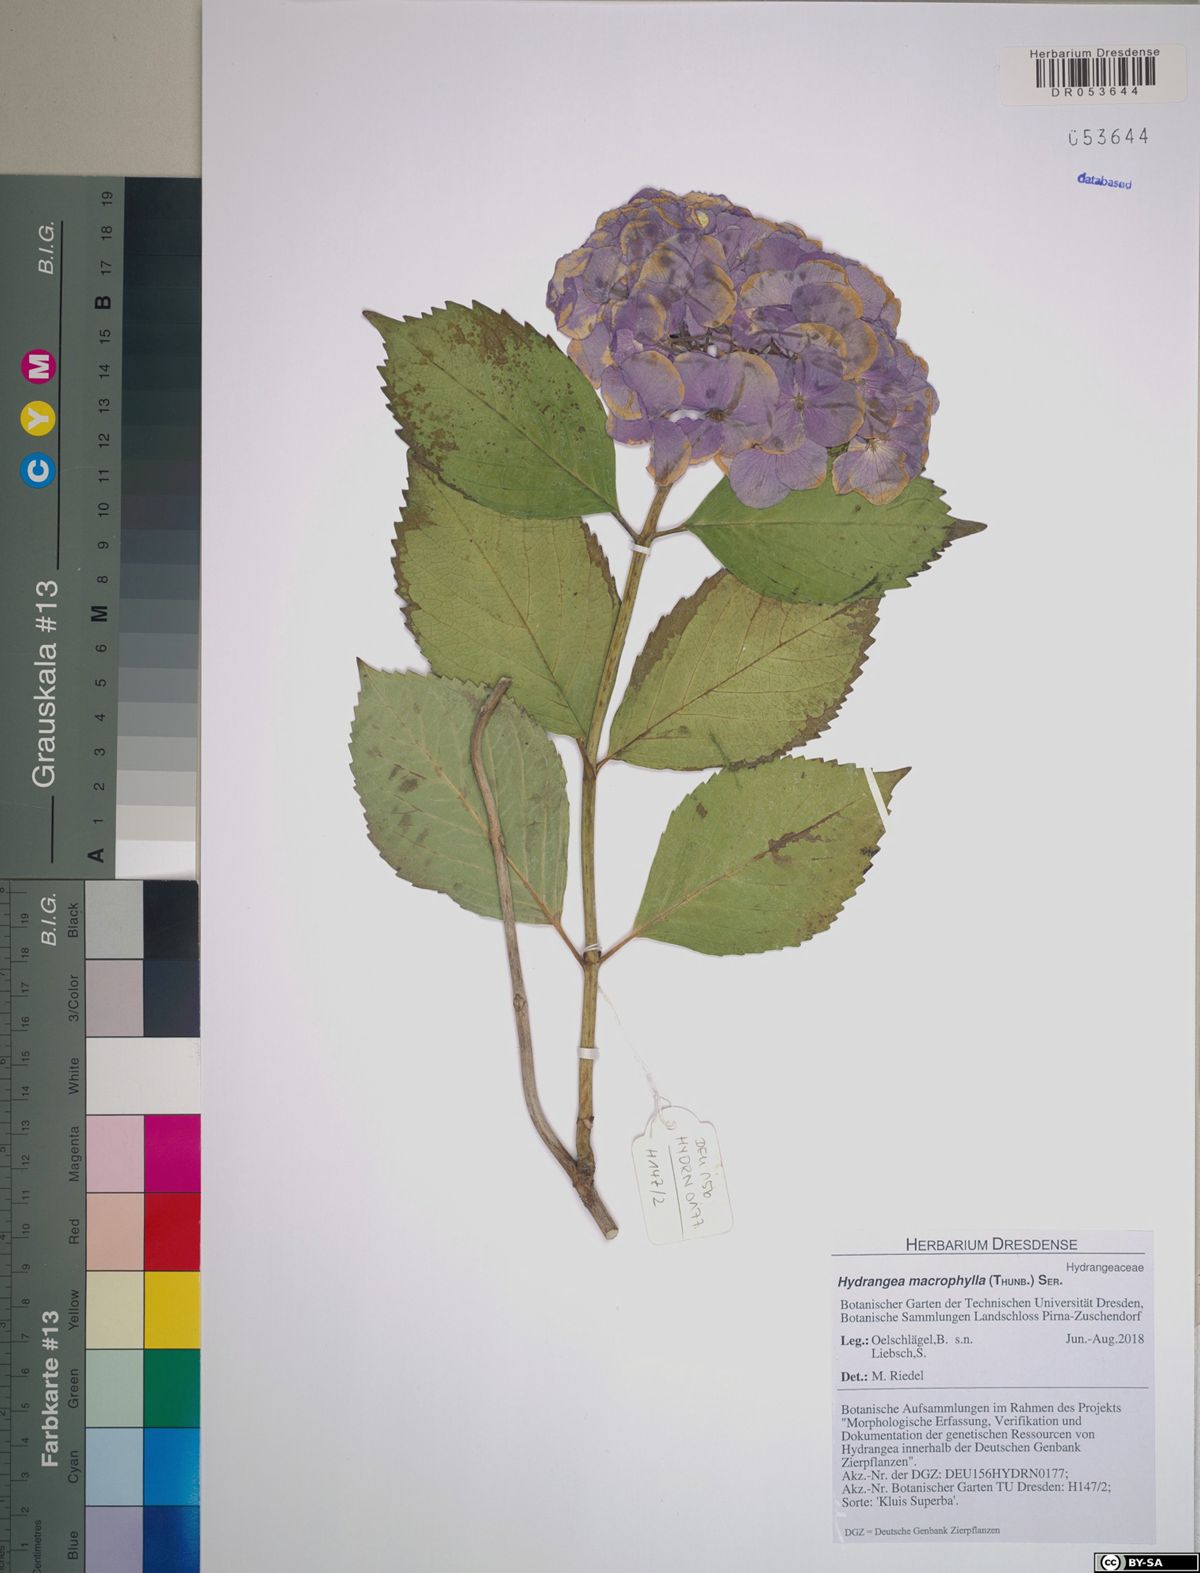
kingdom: Plantae
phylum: Tracheophyta
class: Magnoliopsida
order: Cornales
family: Hydrangeaceae
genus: Hydrangea
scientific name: Hydrangea macrophylla
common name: Hydrangea
